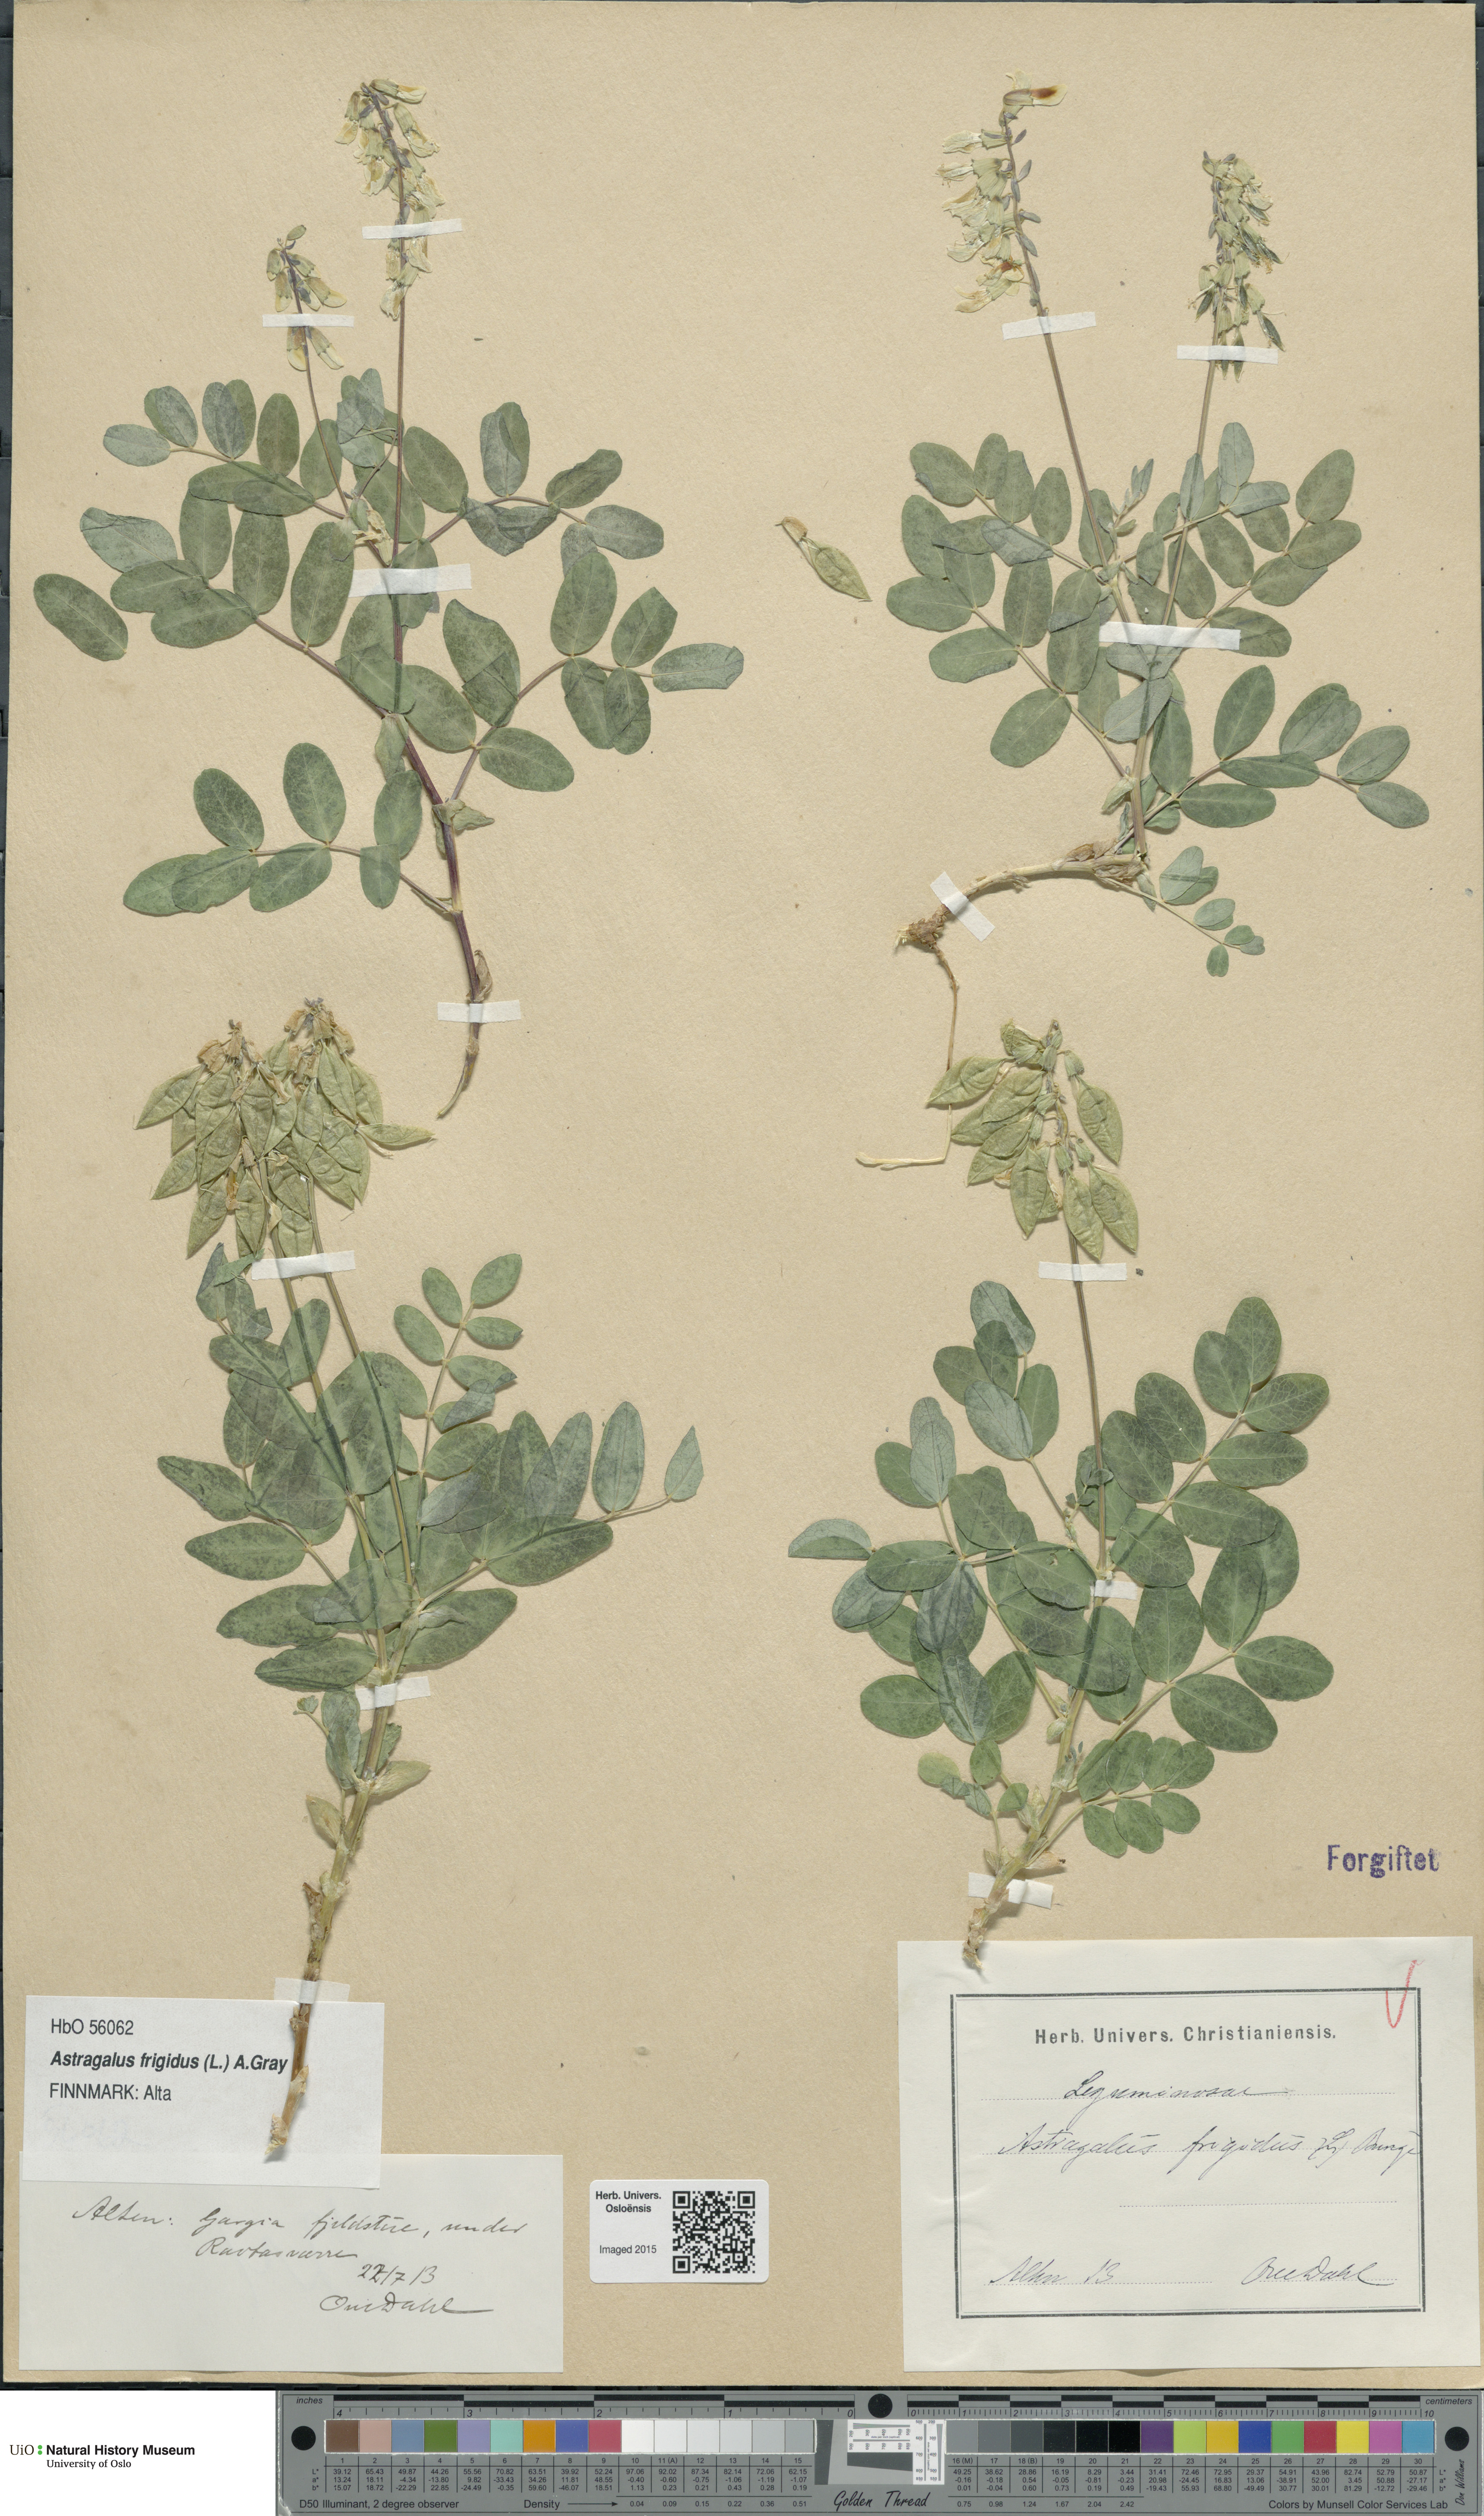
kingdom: Plantae
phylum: Tracheophyta
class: Magnoliopsida
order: Fabales
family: Fabaceae
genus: Astragalus
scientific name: Astragalus frigidus
